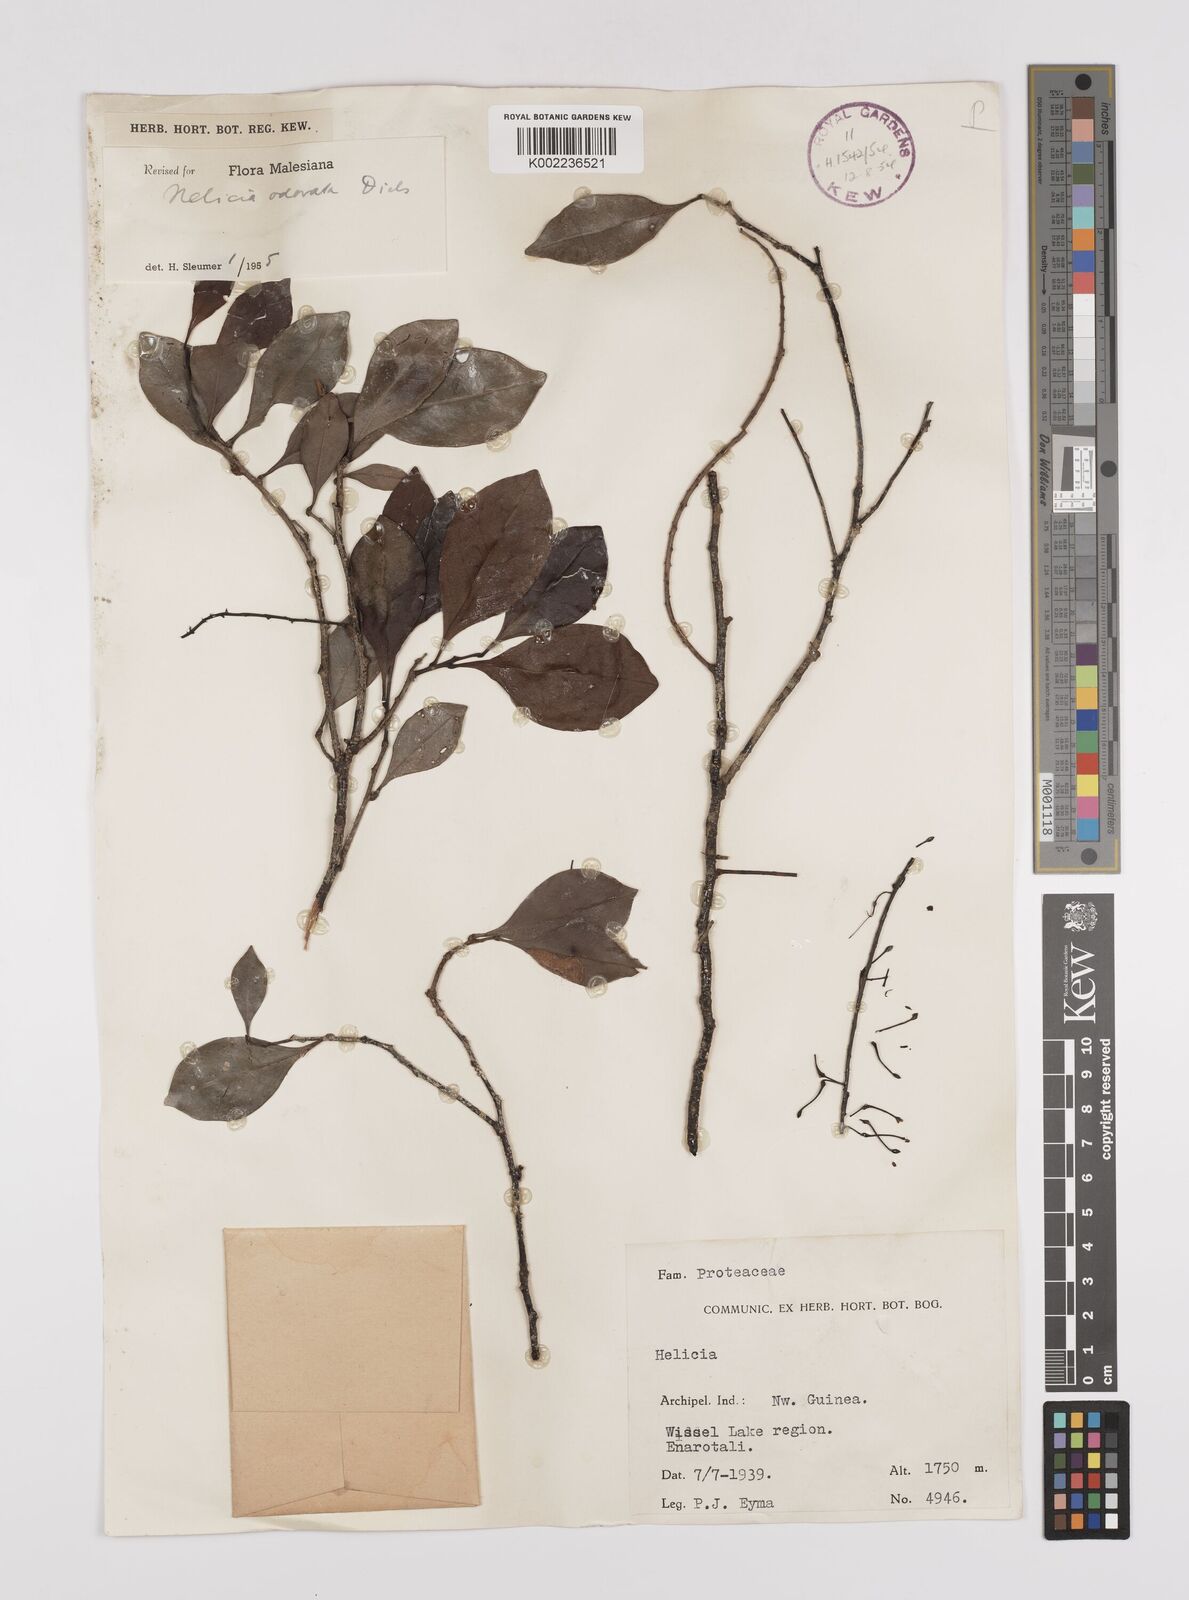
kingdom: Plantae
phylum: Tracheophyta
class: Magnoliopsida
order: Proteales
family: Proteaceae
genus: Helicia
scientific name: Helicia odorata
